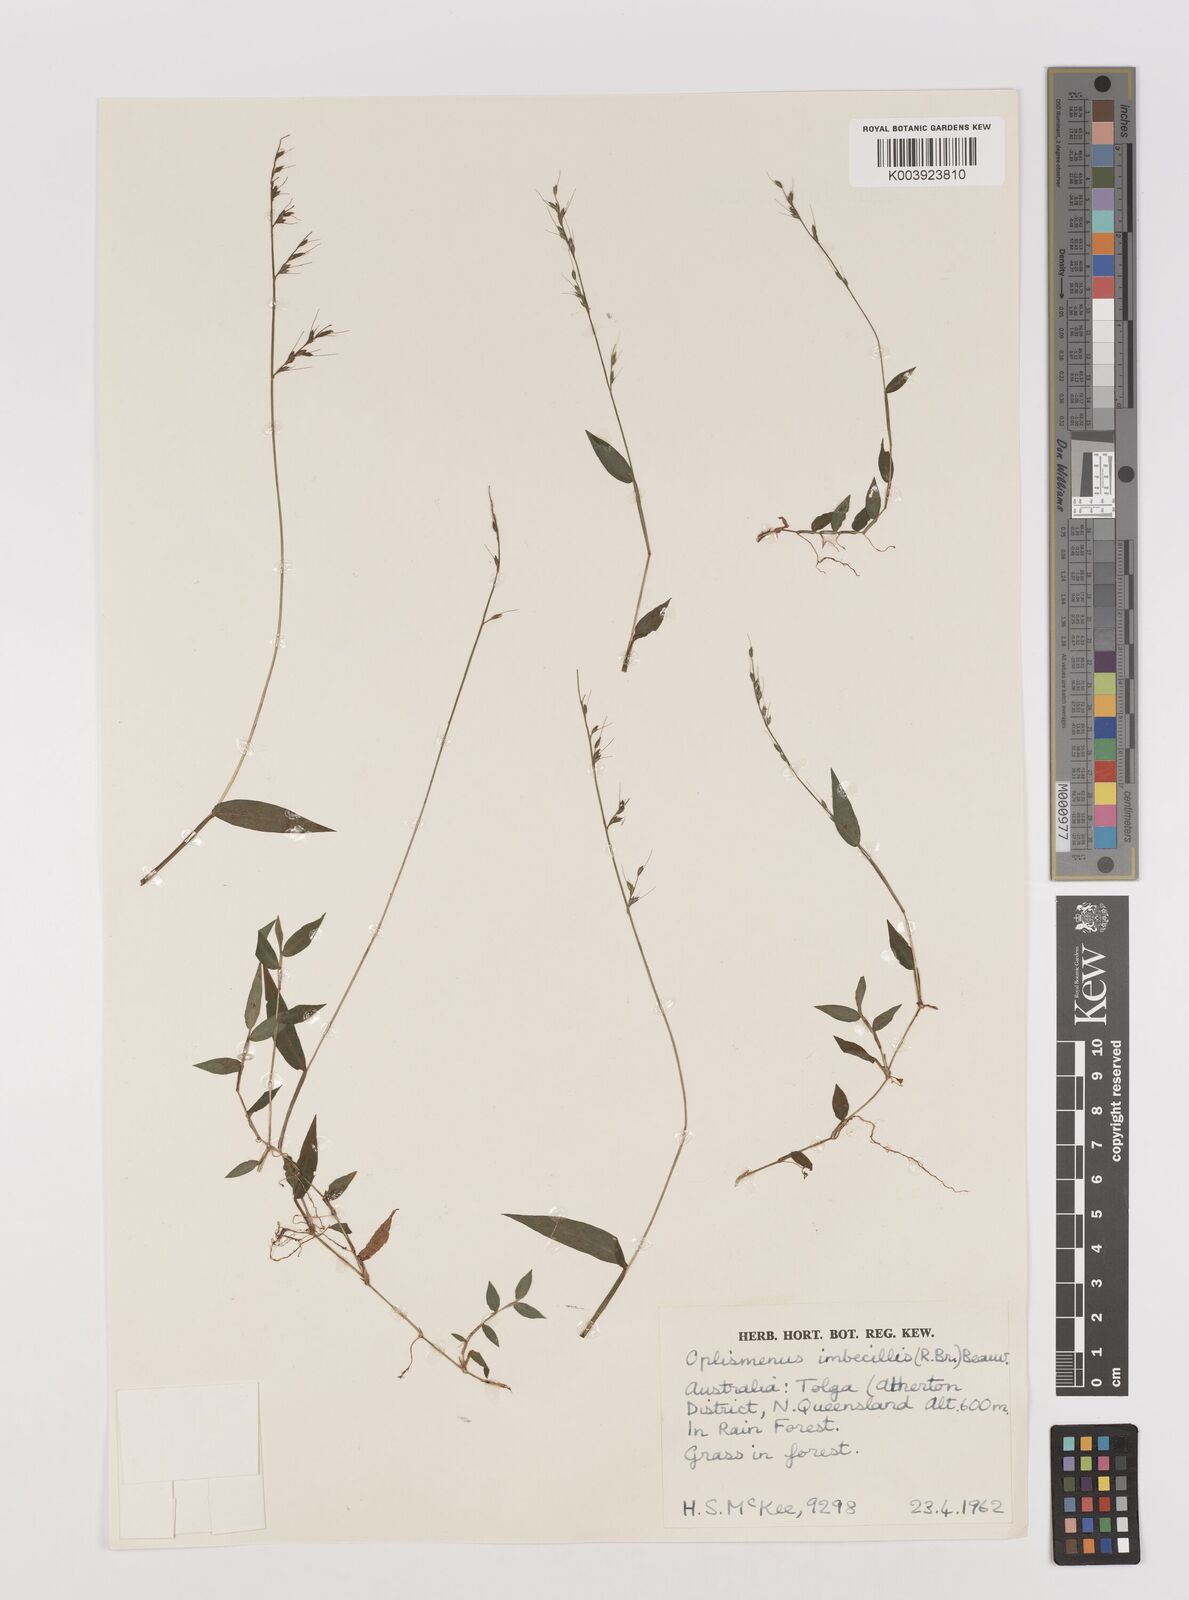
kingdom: Plantae
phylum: Tracheophyta
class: Liliopsida
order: Poales
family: Poaceae
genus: Oplismenus
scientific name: Oplismenus hirtellus
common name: Basketgrass
